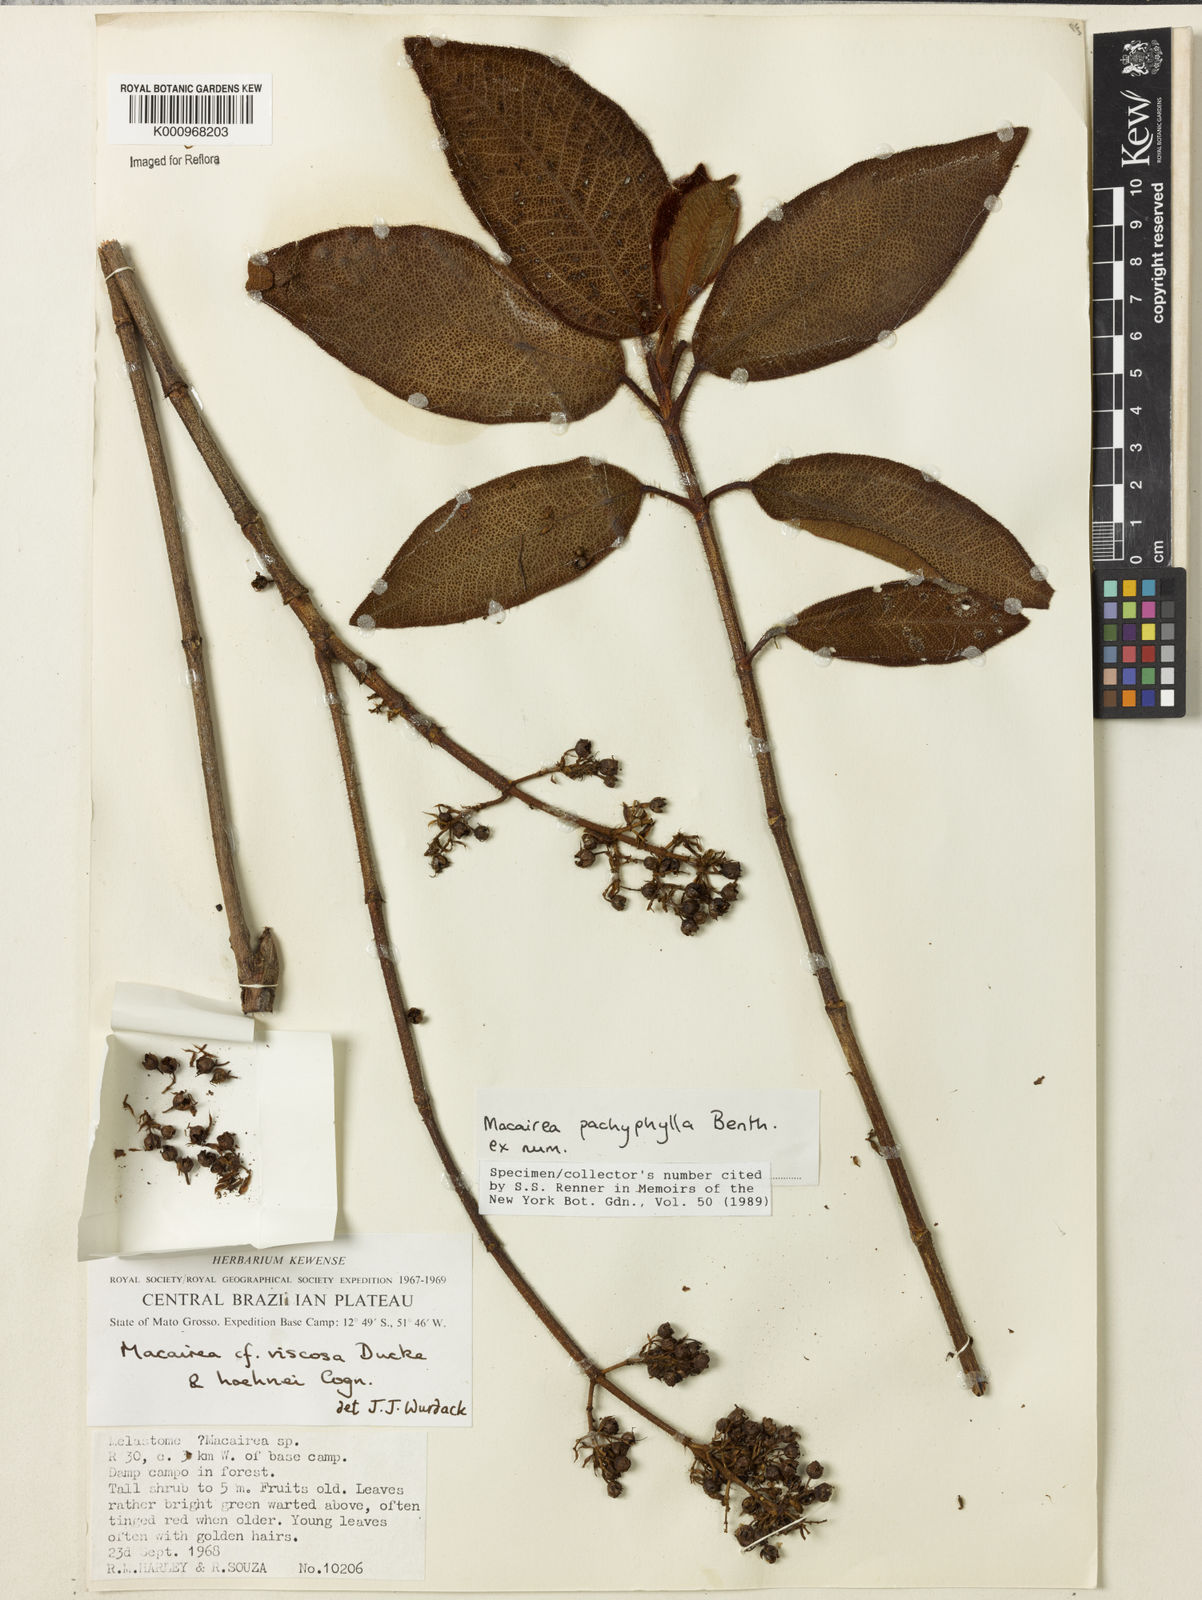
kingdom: Plantae
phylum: Tracheophyta
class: Magnoliopsida
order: Myrtales
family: Melastomataceae
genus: Macairea
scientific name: Macairea pachyphylla
